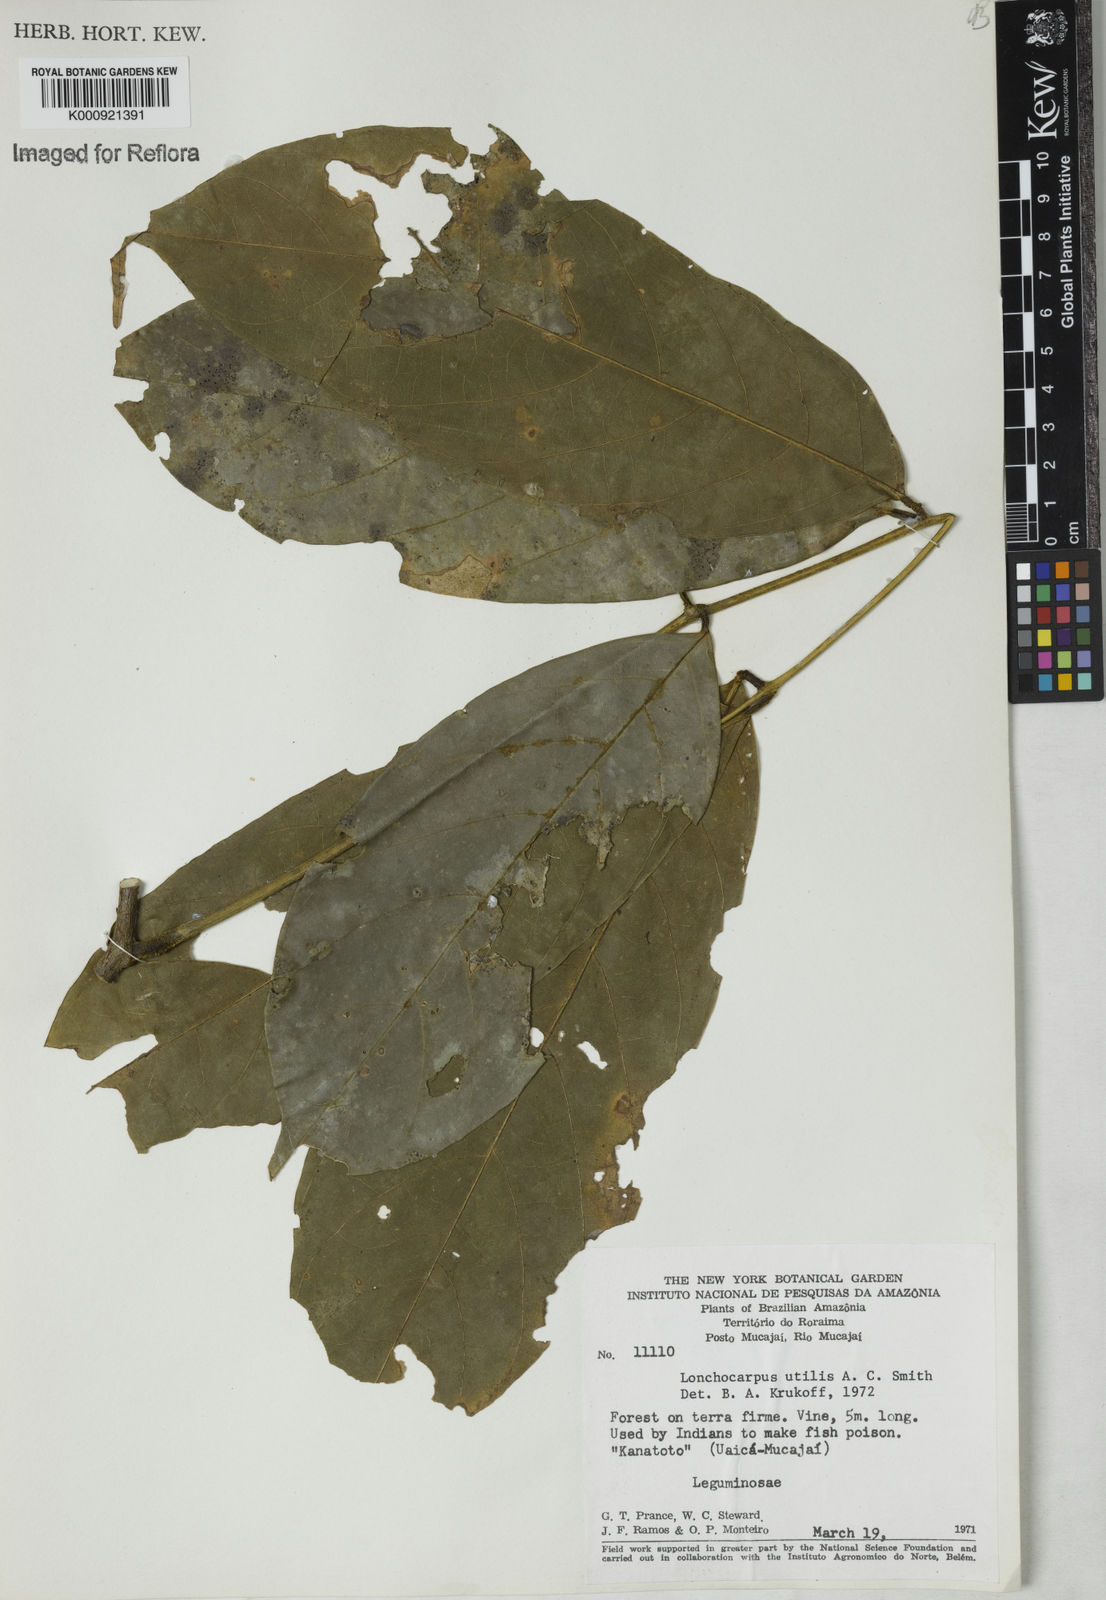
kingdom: Plantae
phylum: Tracheophyta
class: Magnoliopsida
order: Fabales
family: Fabaceae
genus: Deguelia
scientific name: Deguelia utilis
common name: Timbo
